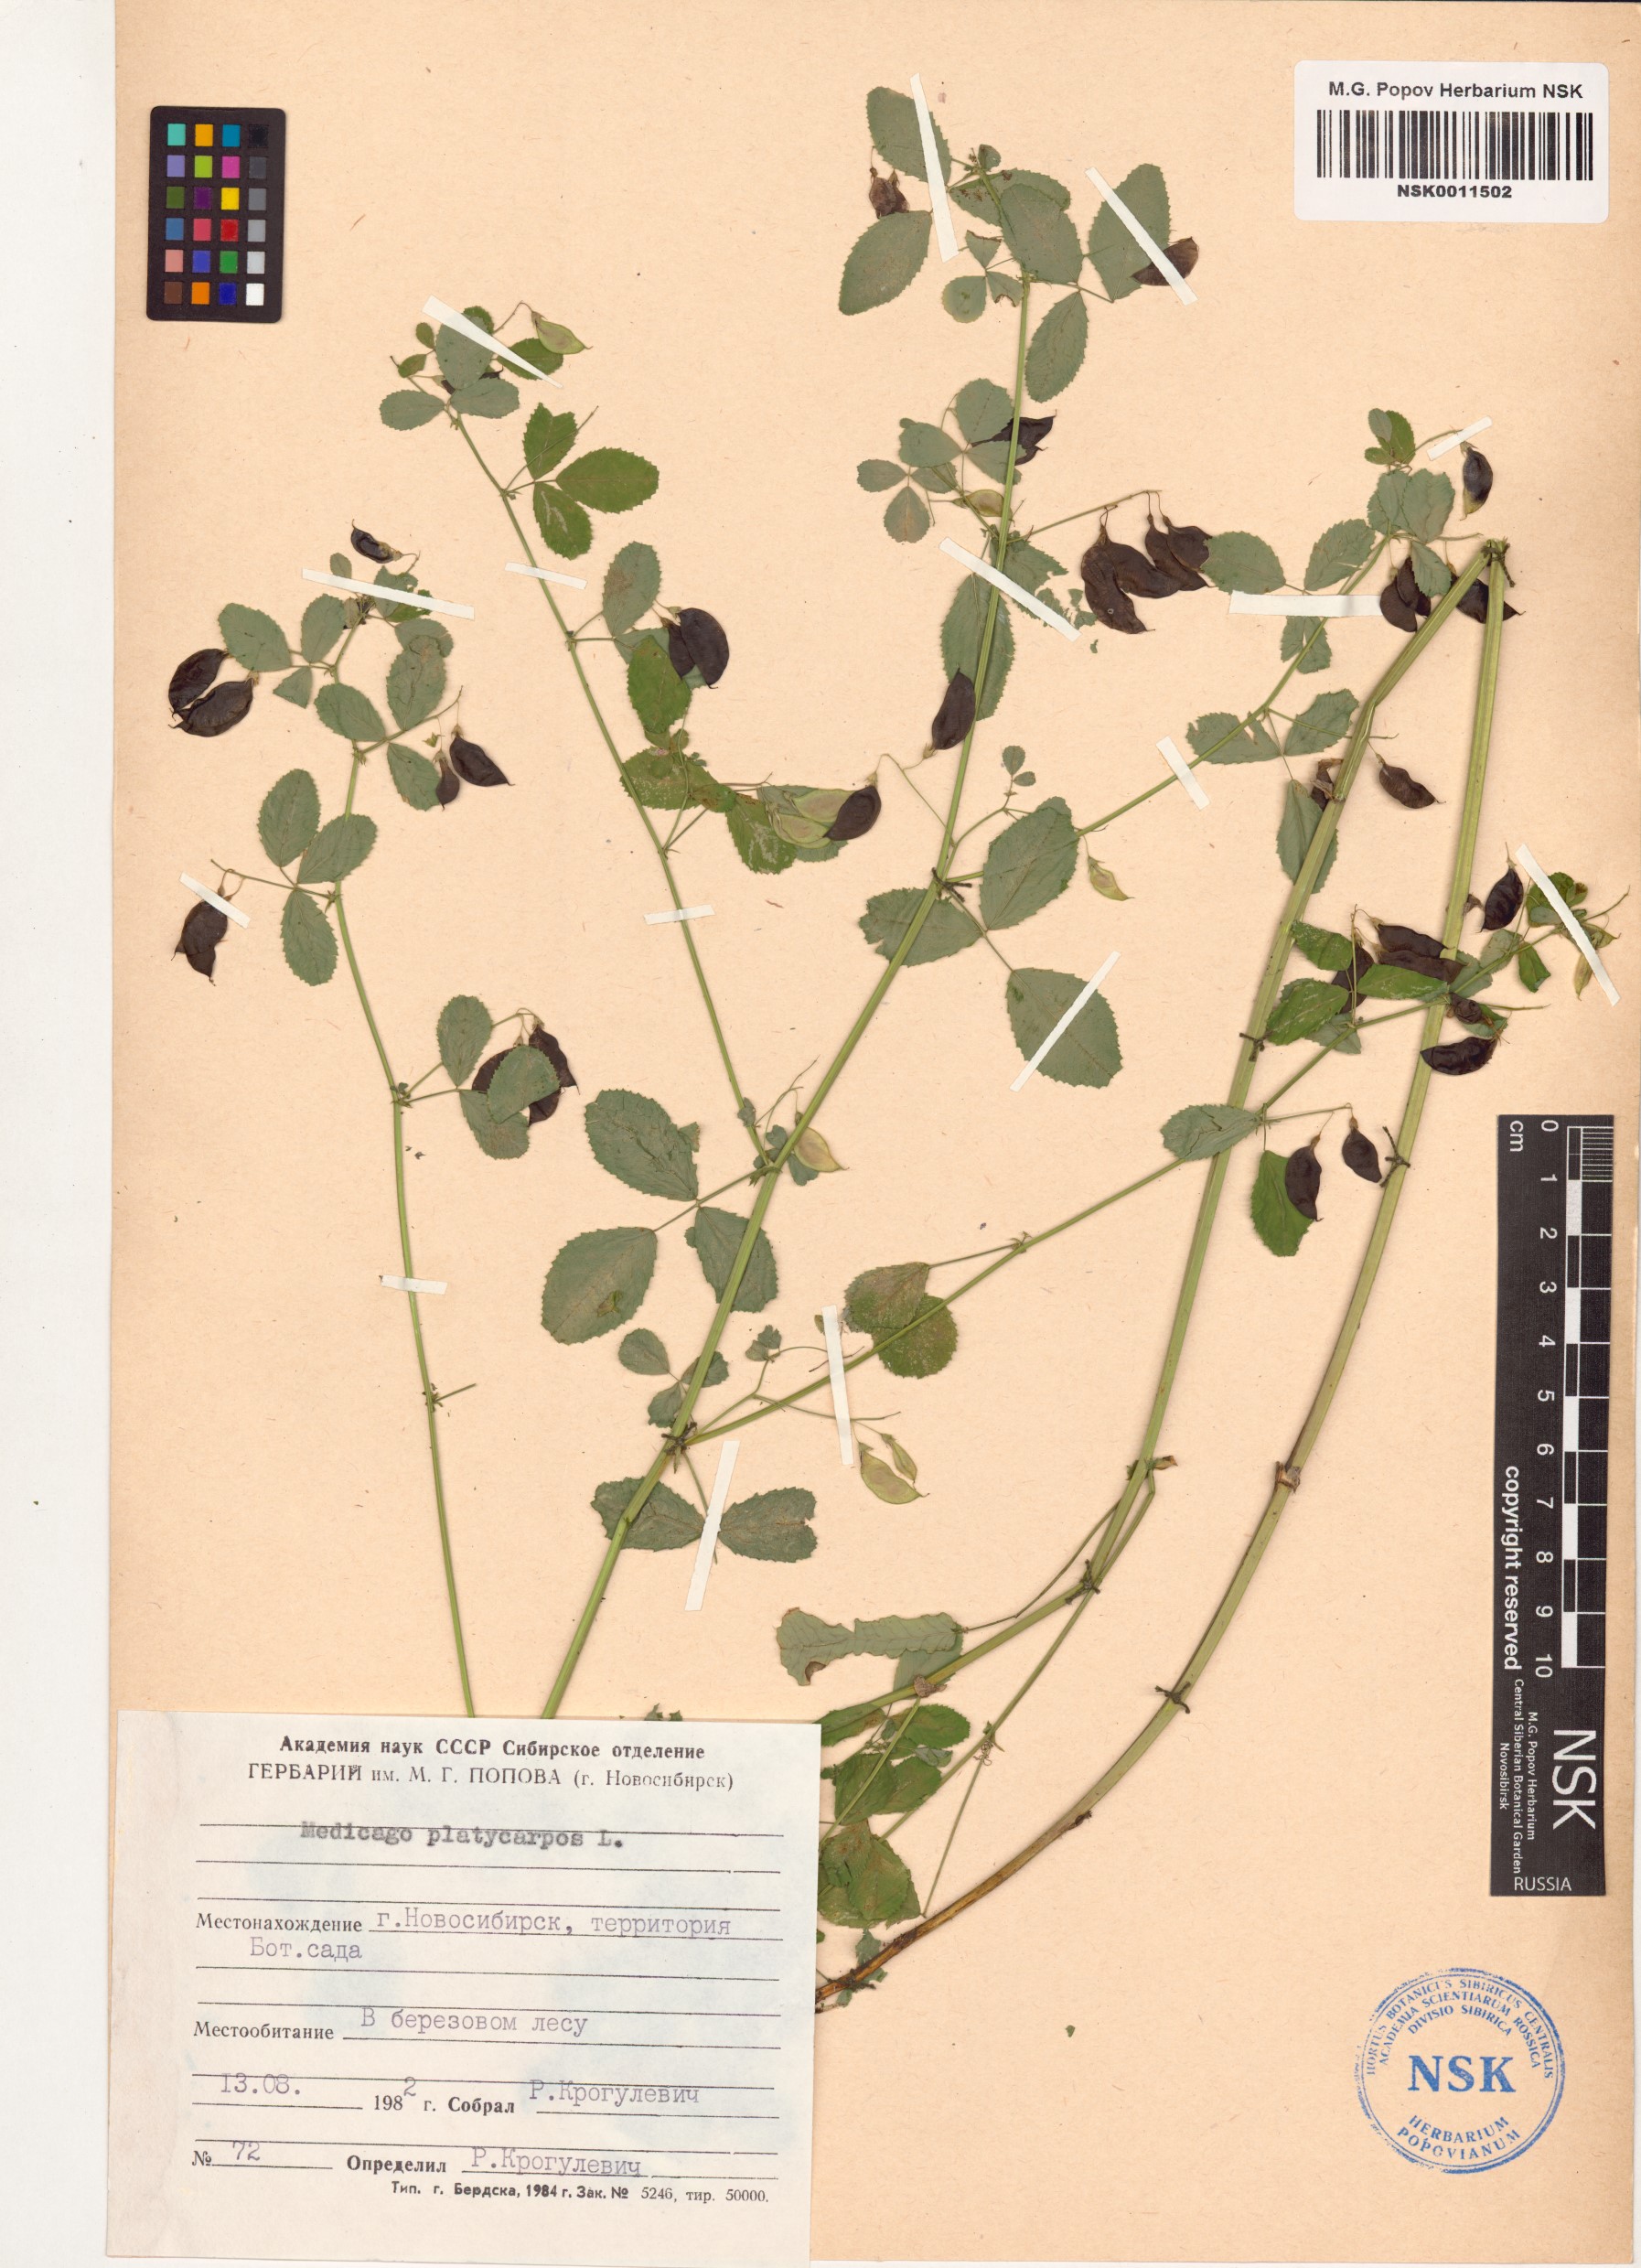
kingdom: Plantae
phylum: Tracheophyta
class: Magnoliopsida
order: Fabales
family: Fabaceae
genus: Medicago
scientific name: Medicago platycarpos
